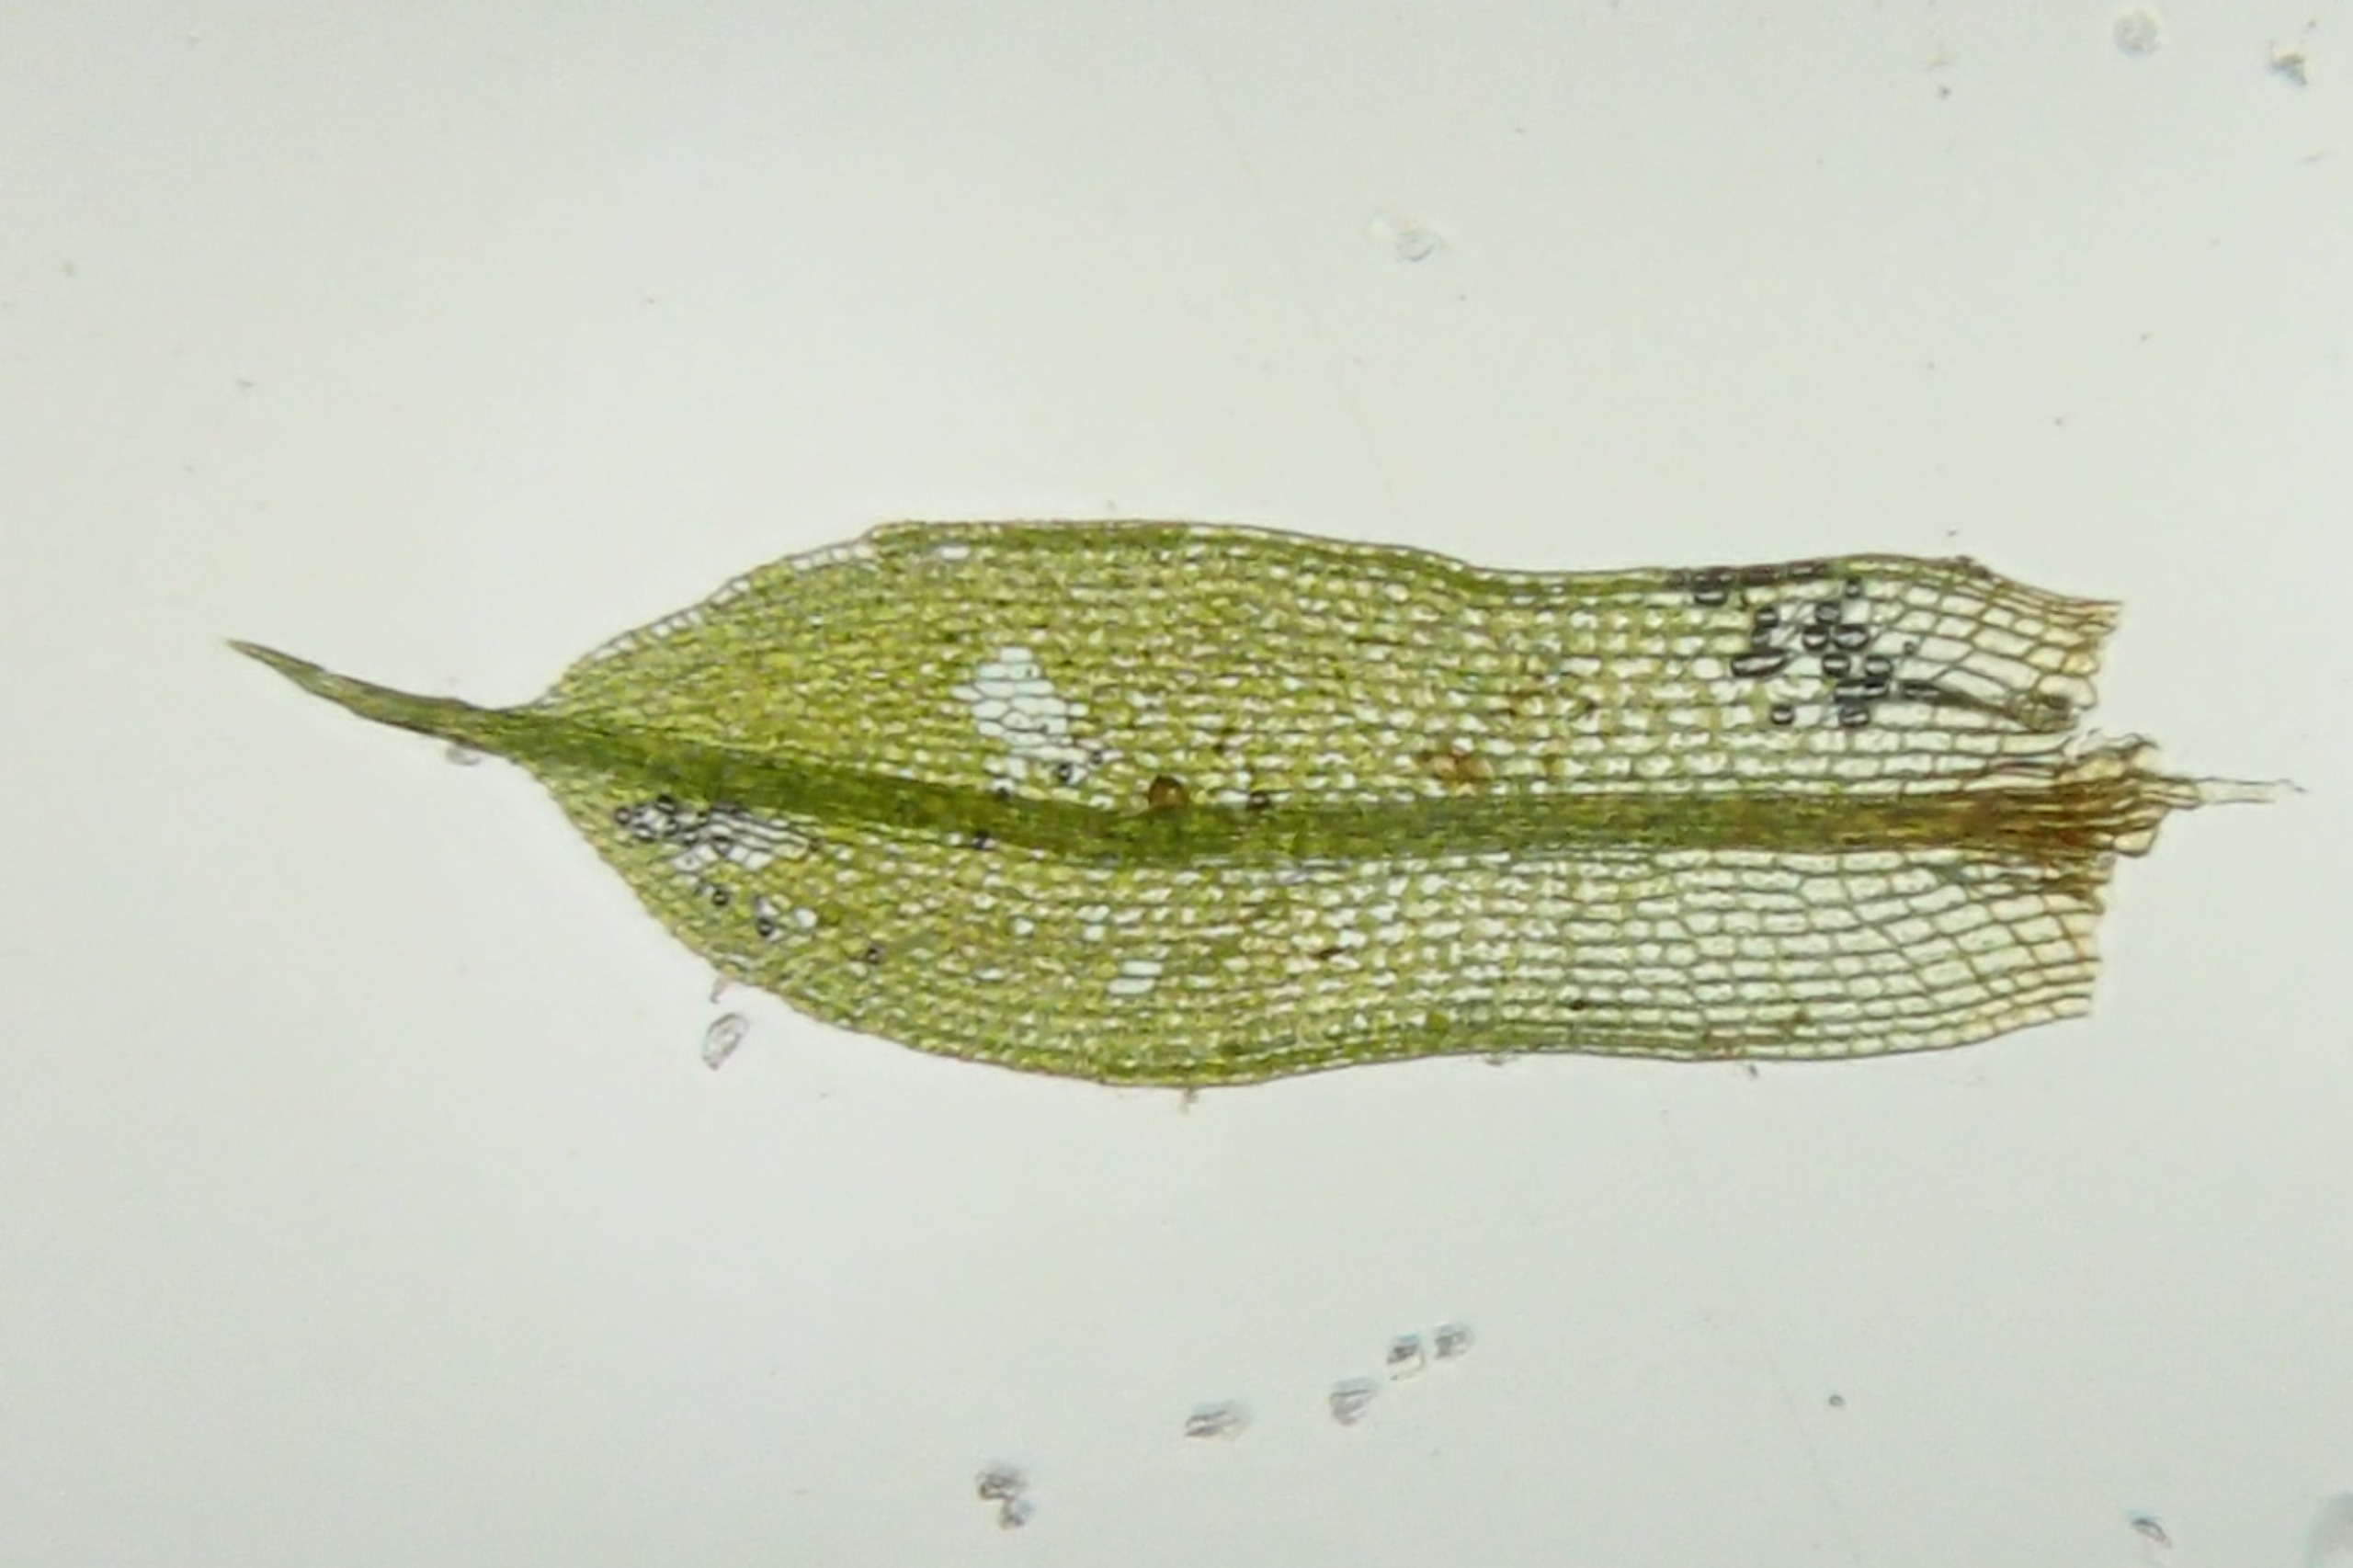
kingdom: Plantae
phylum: Bryophyta
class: Bryopsida
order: Pottiales
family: Pottiaceae
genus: Tortula
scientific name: Tortula caucasica
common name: Mark-bægermos
